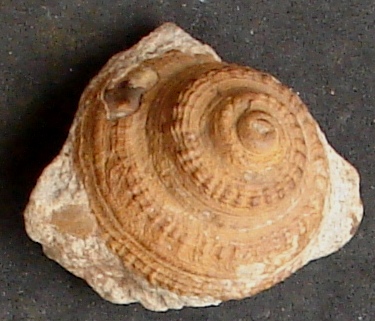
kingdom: Animalia
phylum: Mollusca
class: Gastropoda
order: Pleurotomariida
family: Pleurotomariidae
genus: Obornella
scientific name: Obornella Pleurotomaria lentiformis
